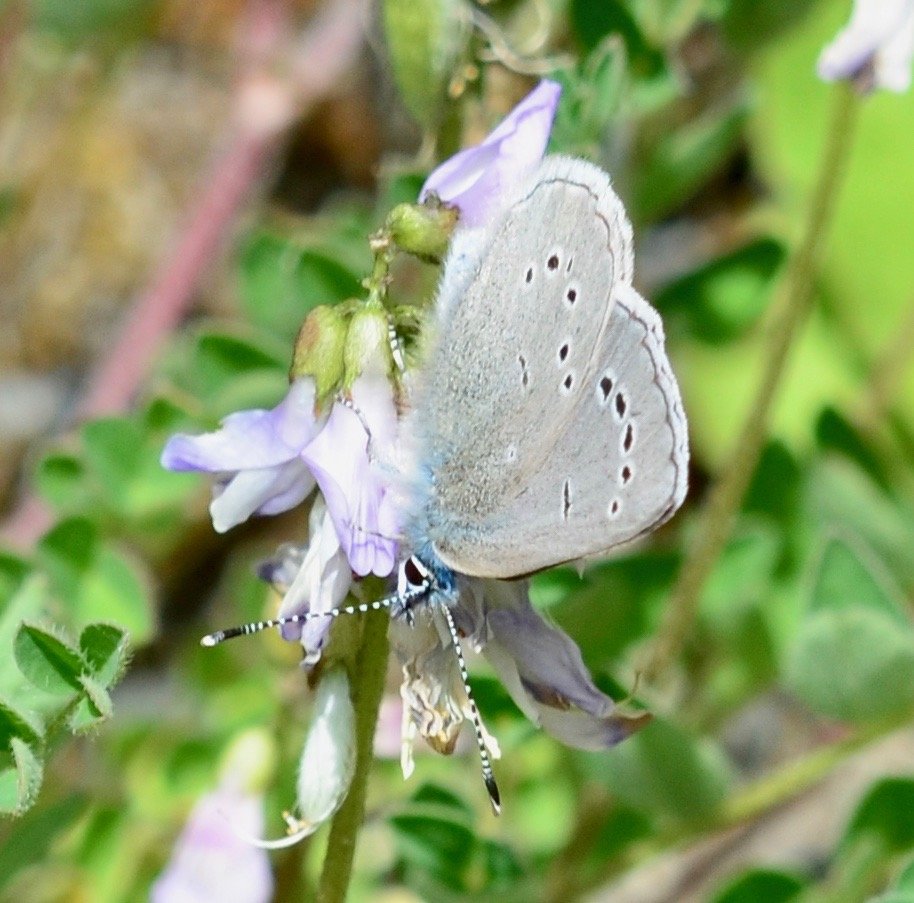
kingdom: Animalia
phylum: Arthropoda
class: Insecta
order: Lepidoptera
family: Lycaenidae
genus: Glaucopsyche
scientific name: Glaucopsyche lygdamus
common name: Silvery Blue
